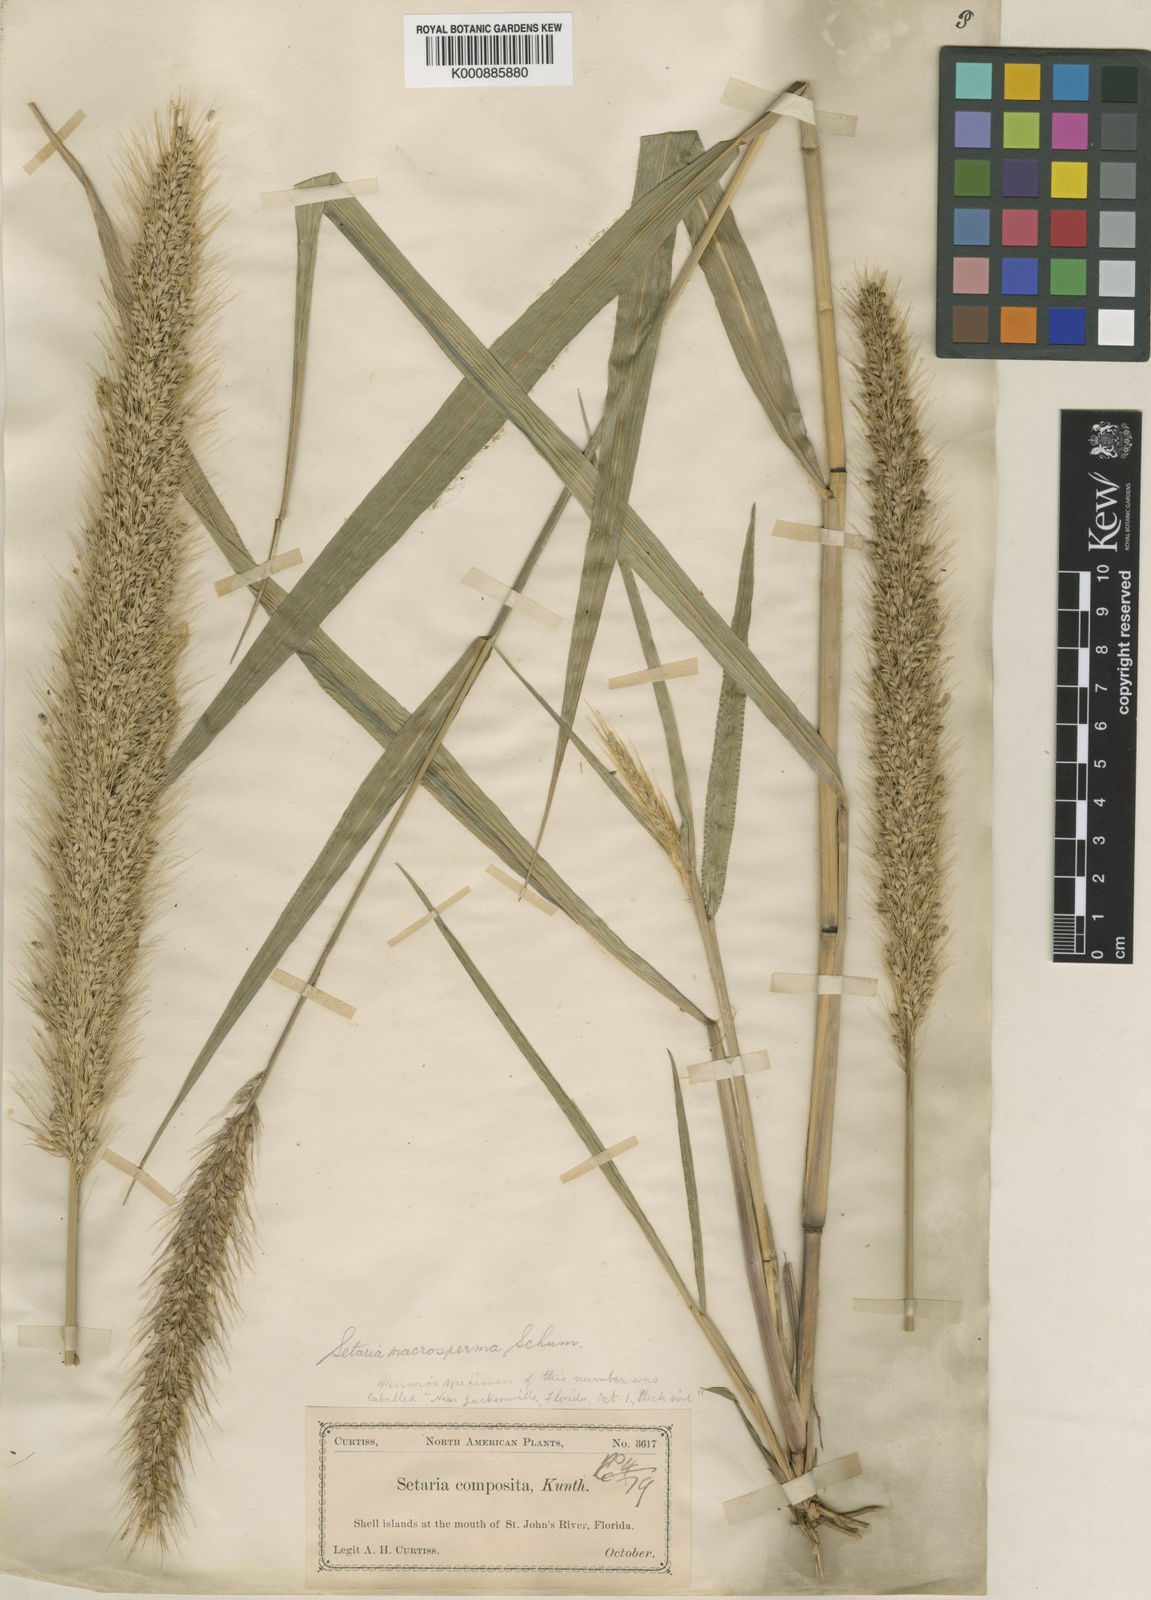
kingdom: Plantae
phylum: Tracheophyta
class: Liliopsida
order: Poales
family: Poaceae
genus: Setaria
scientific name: Setaria macrosperma
